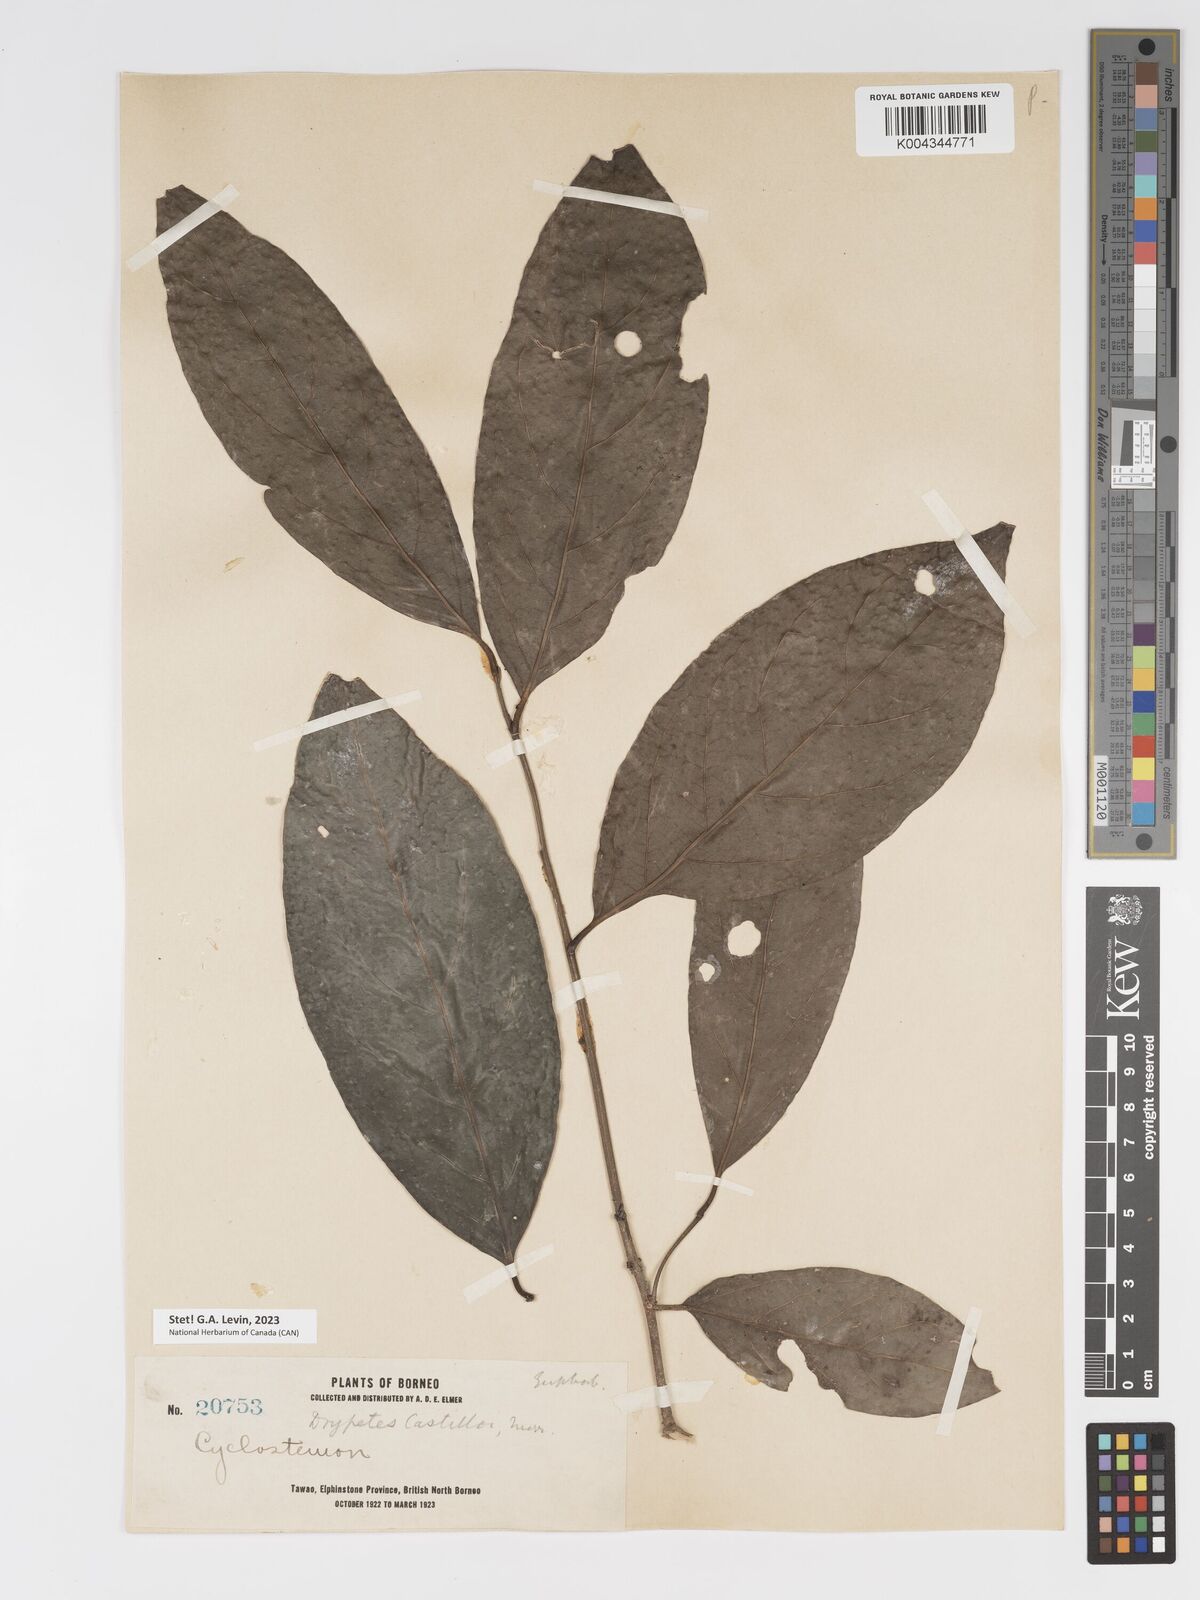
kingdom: Plantae
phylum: Tracheophyta
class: Magnoliopsida
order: Malpighiales
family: Putranjivaceae
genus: Drypetes
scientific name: Drypetes castilloi
